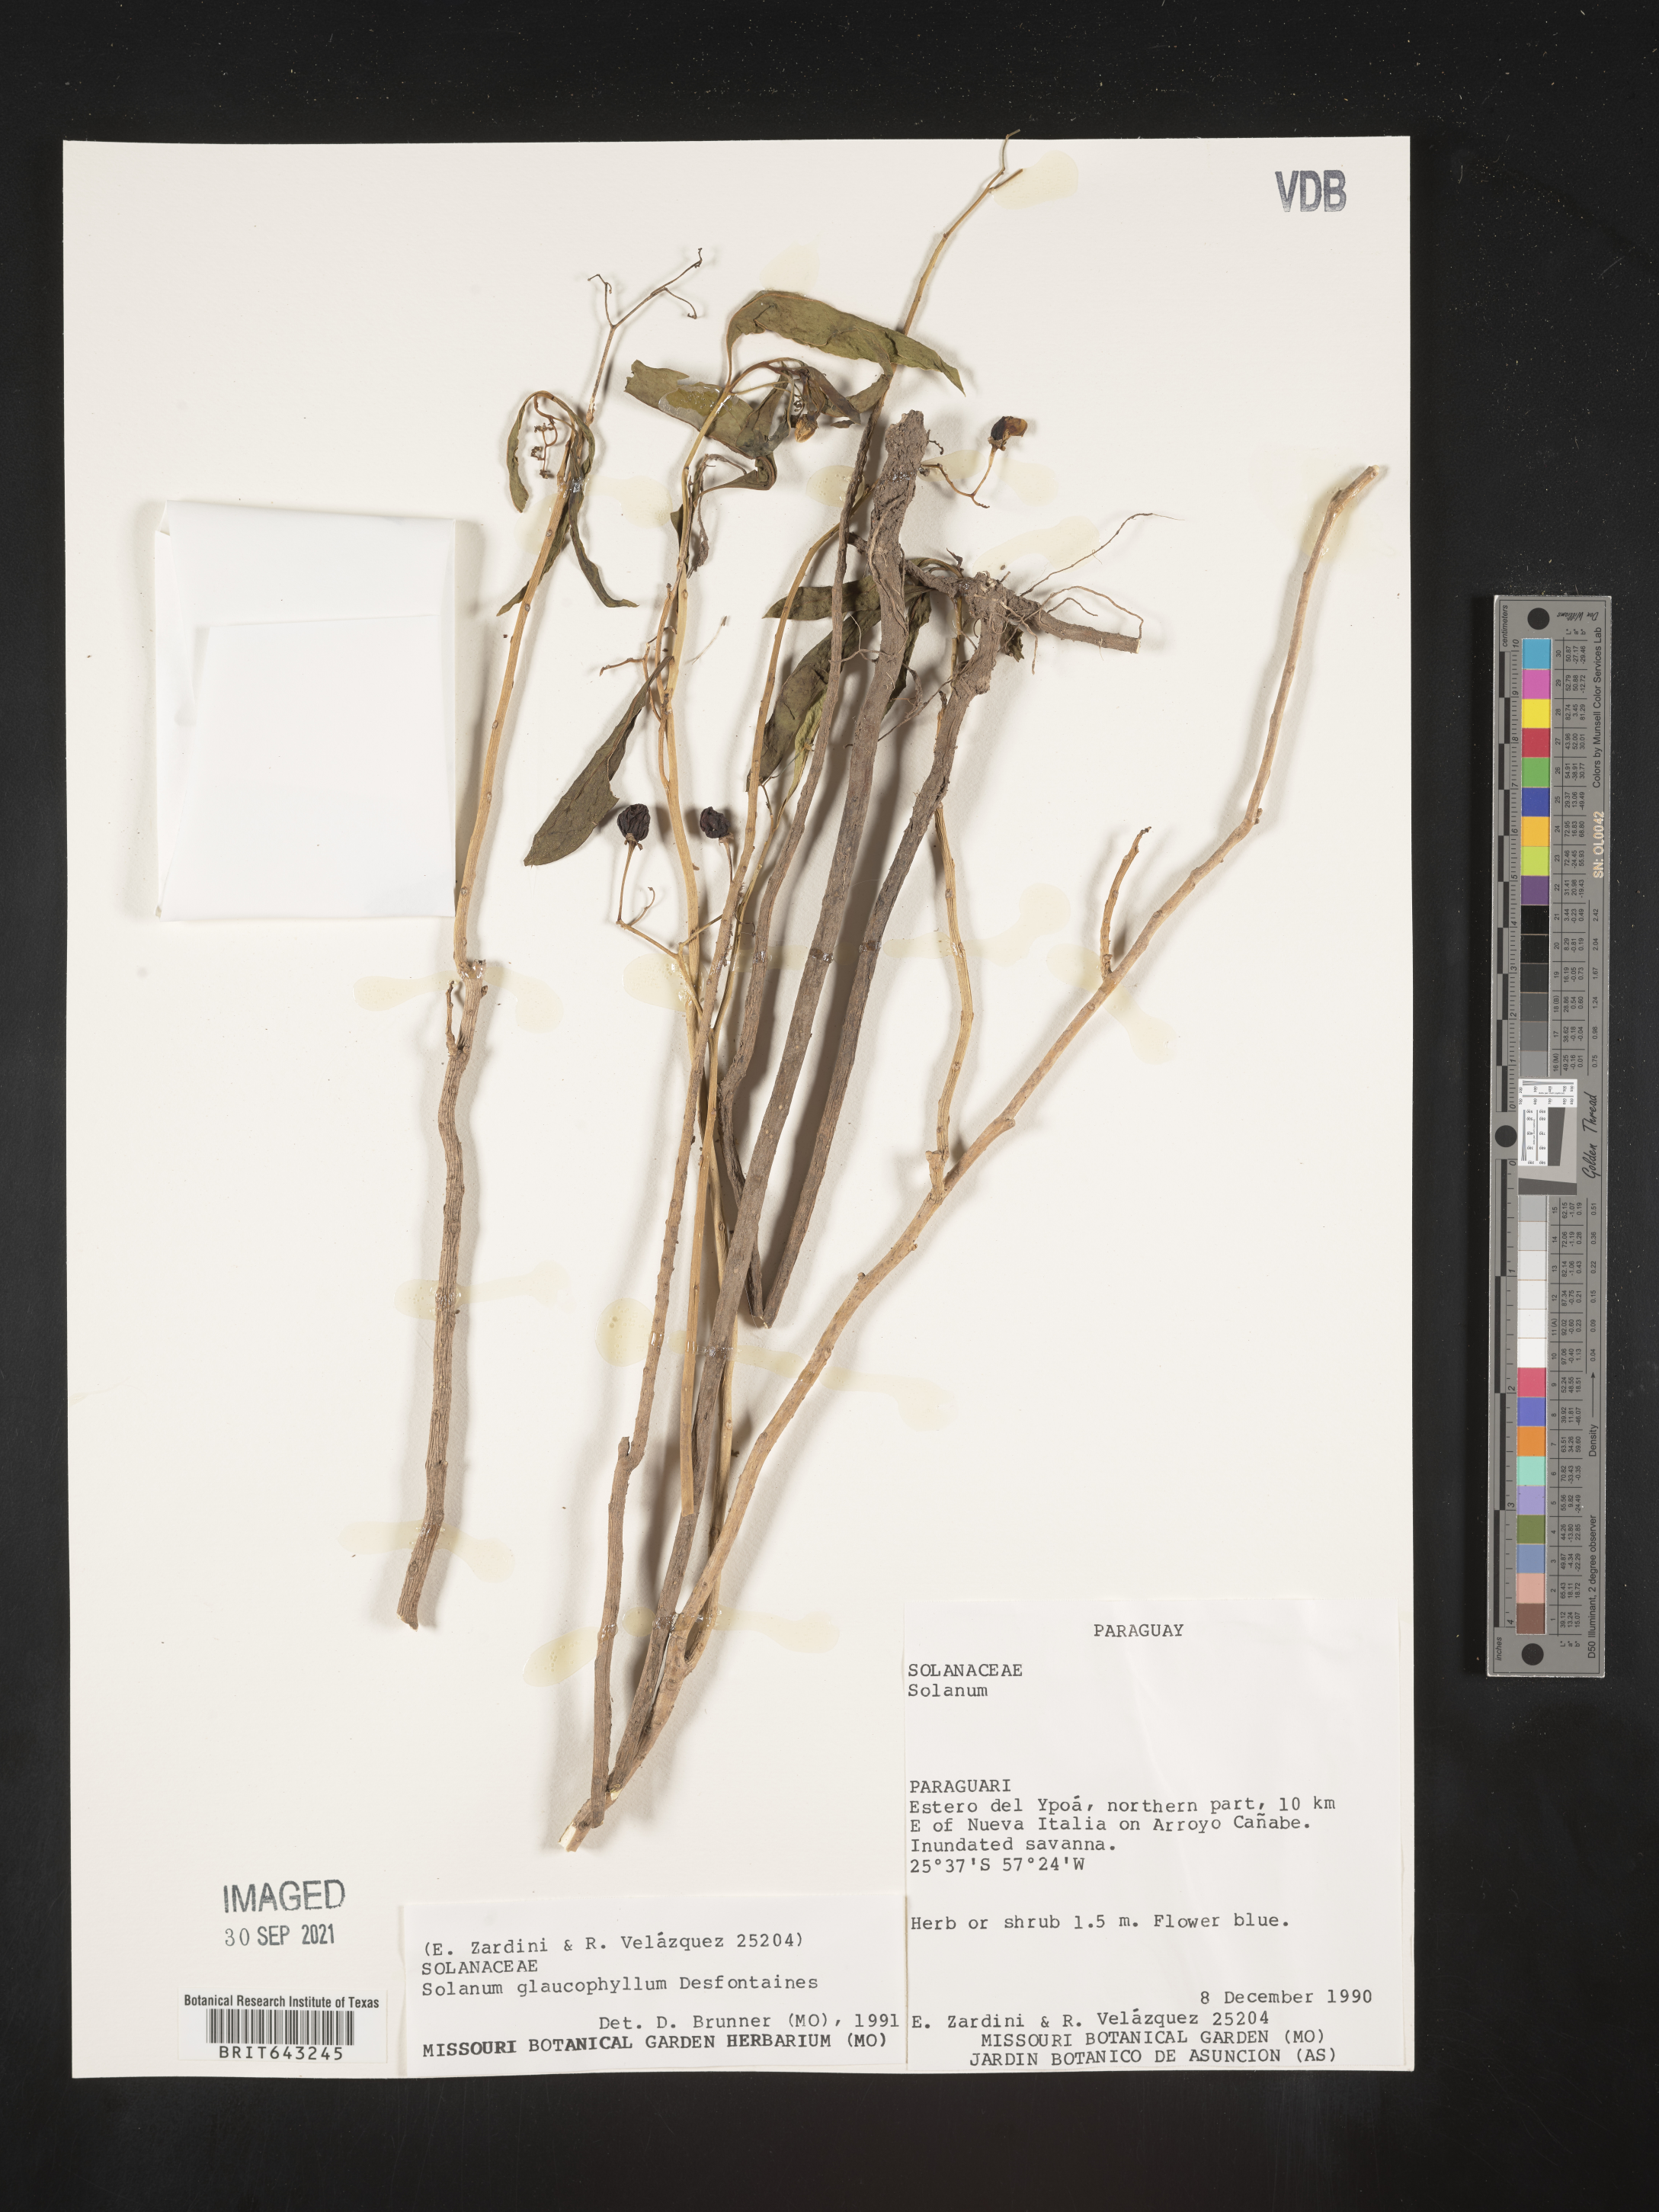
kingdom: Plantae
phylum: Tracheophyta
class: Magnoliopsida
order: Solanales
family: Solanaceae
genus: Solanum
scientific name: Solanum
